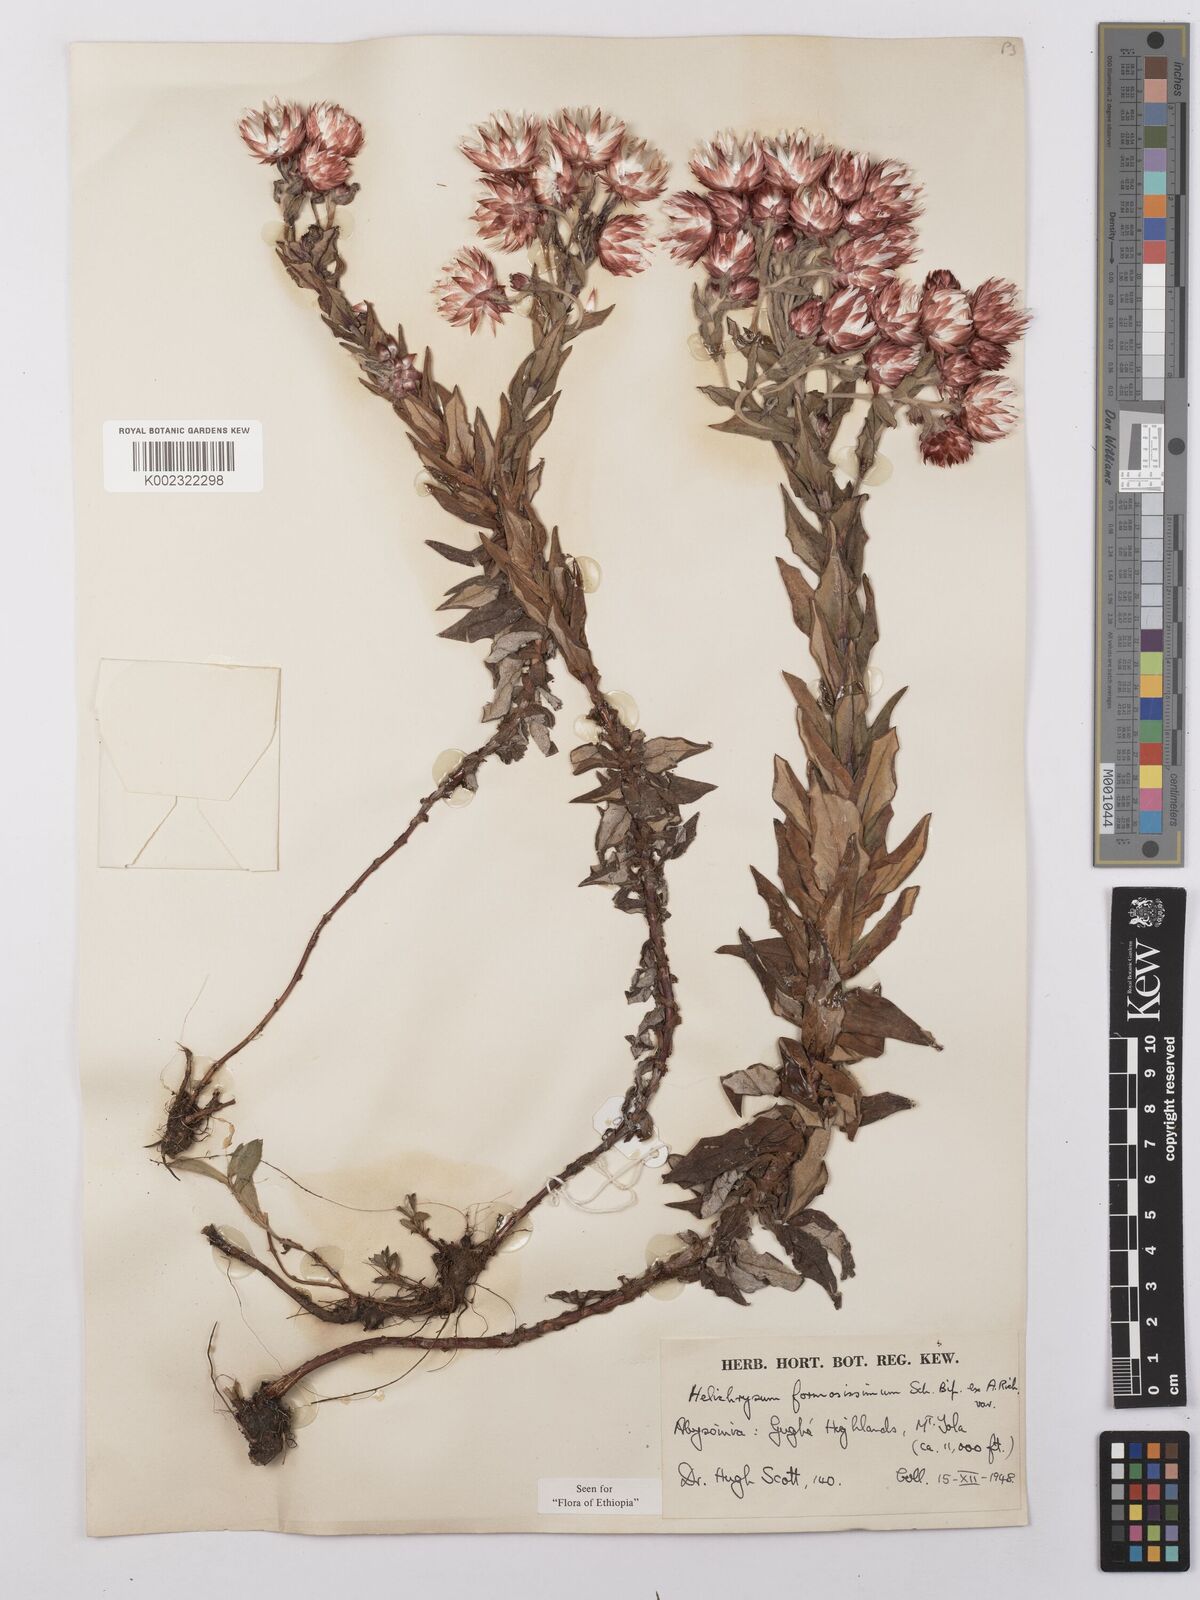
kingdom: Plantae
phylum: Tracheophyta
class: Magnoliopsida
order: Asterales
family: Asteraceae
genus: Helichrysum
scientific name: Helichrysum formosissimum
